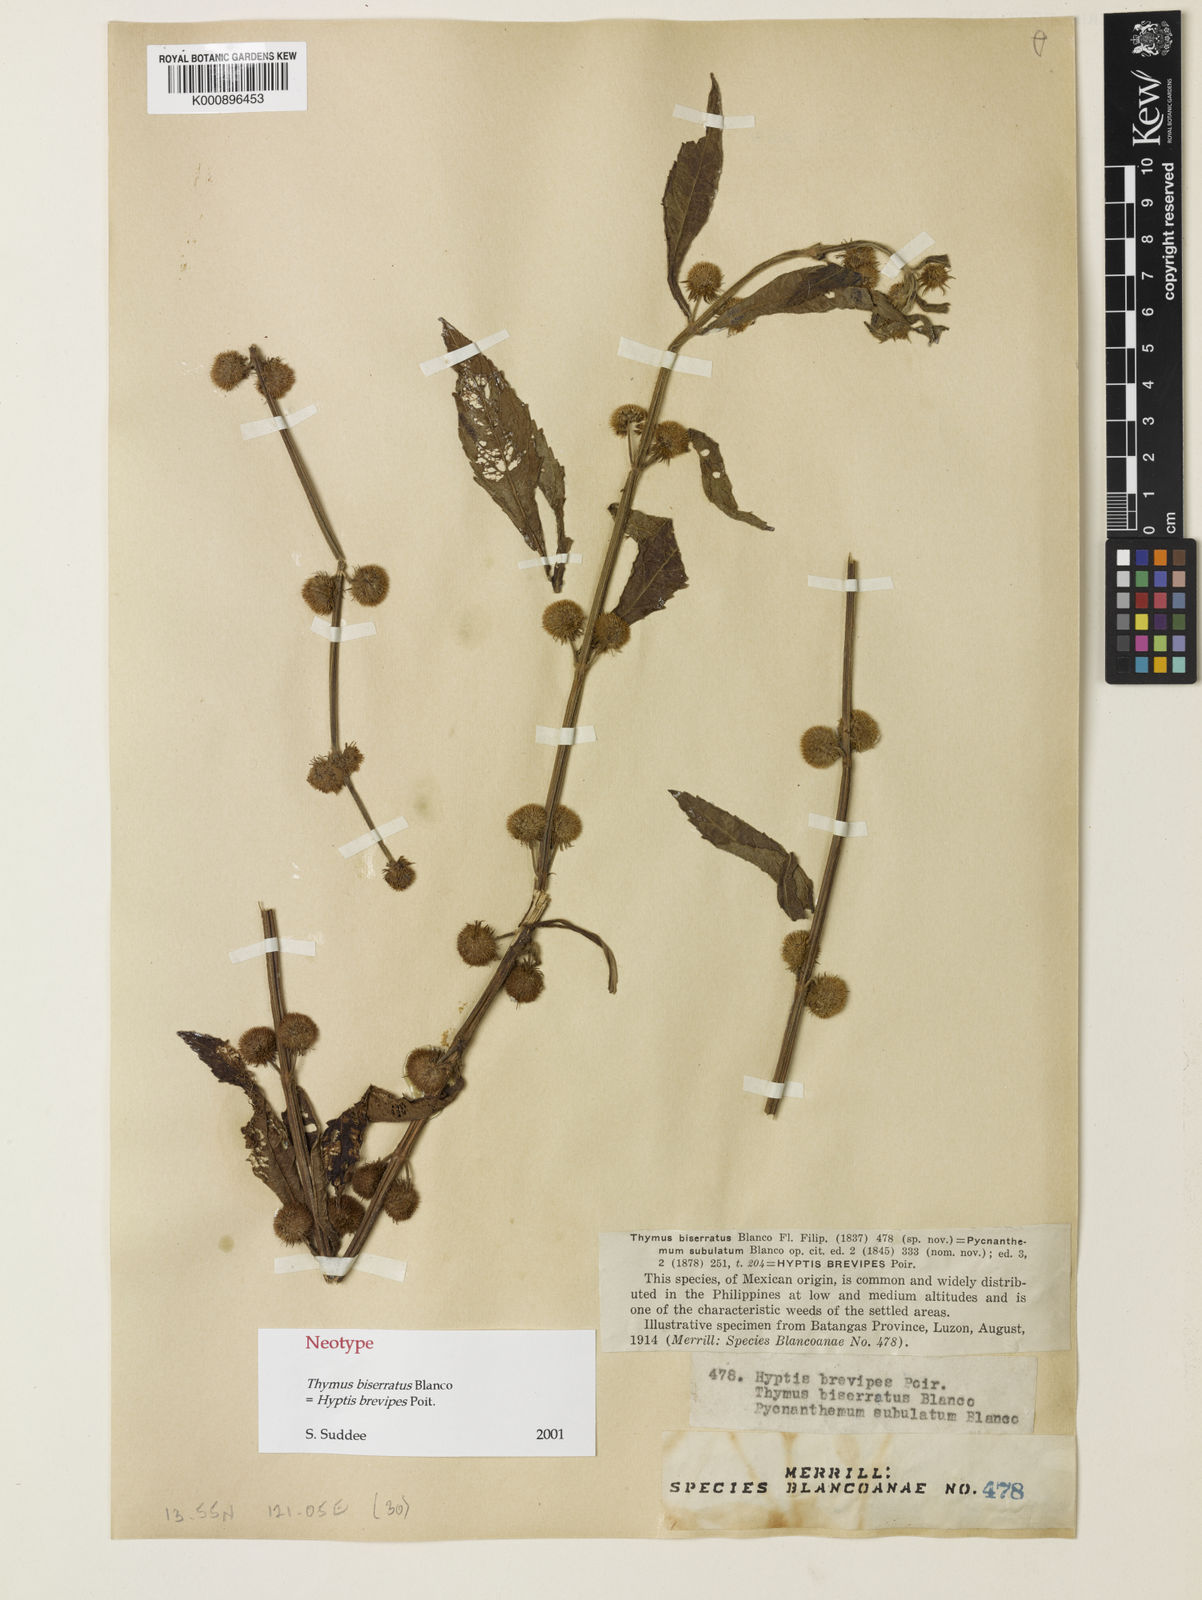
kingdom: Plantae
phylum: Tracheophyta
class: Magnoliopsida
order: Lamiales
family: Lamiaceae
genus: Hyptis
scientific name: Hyptis brevipes
